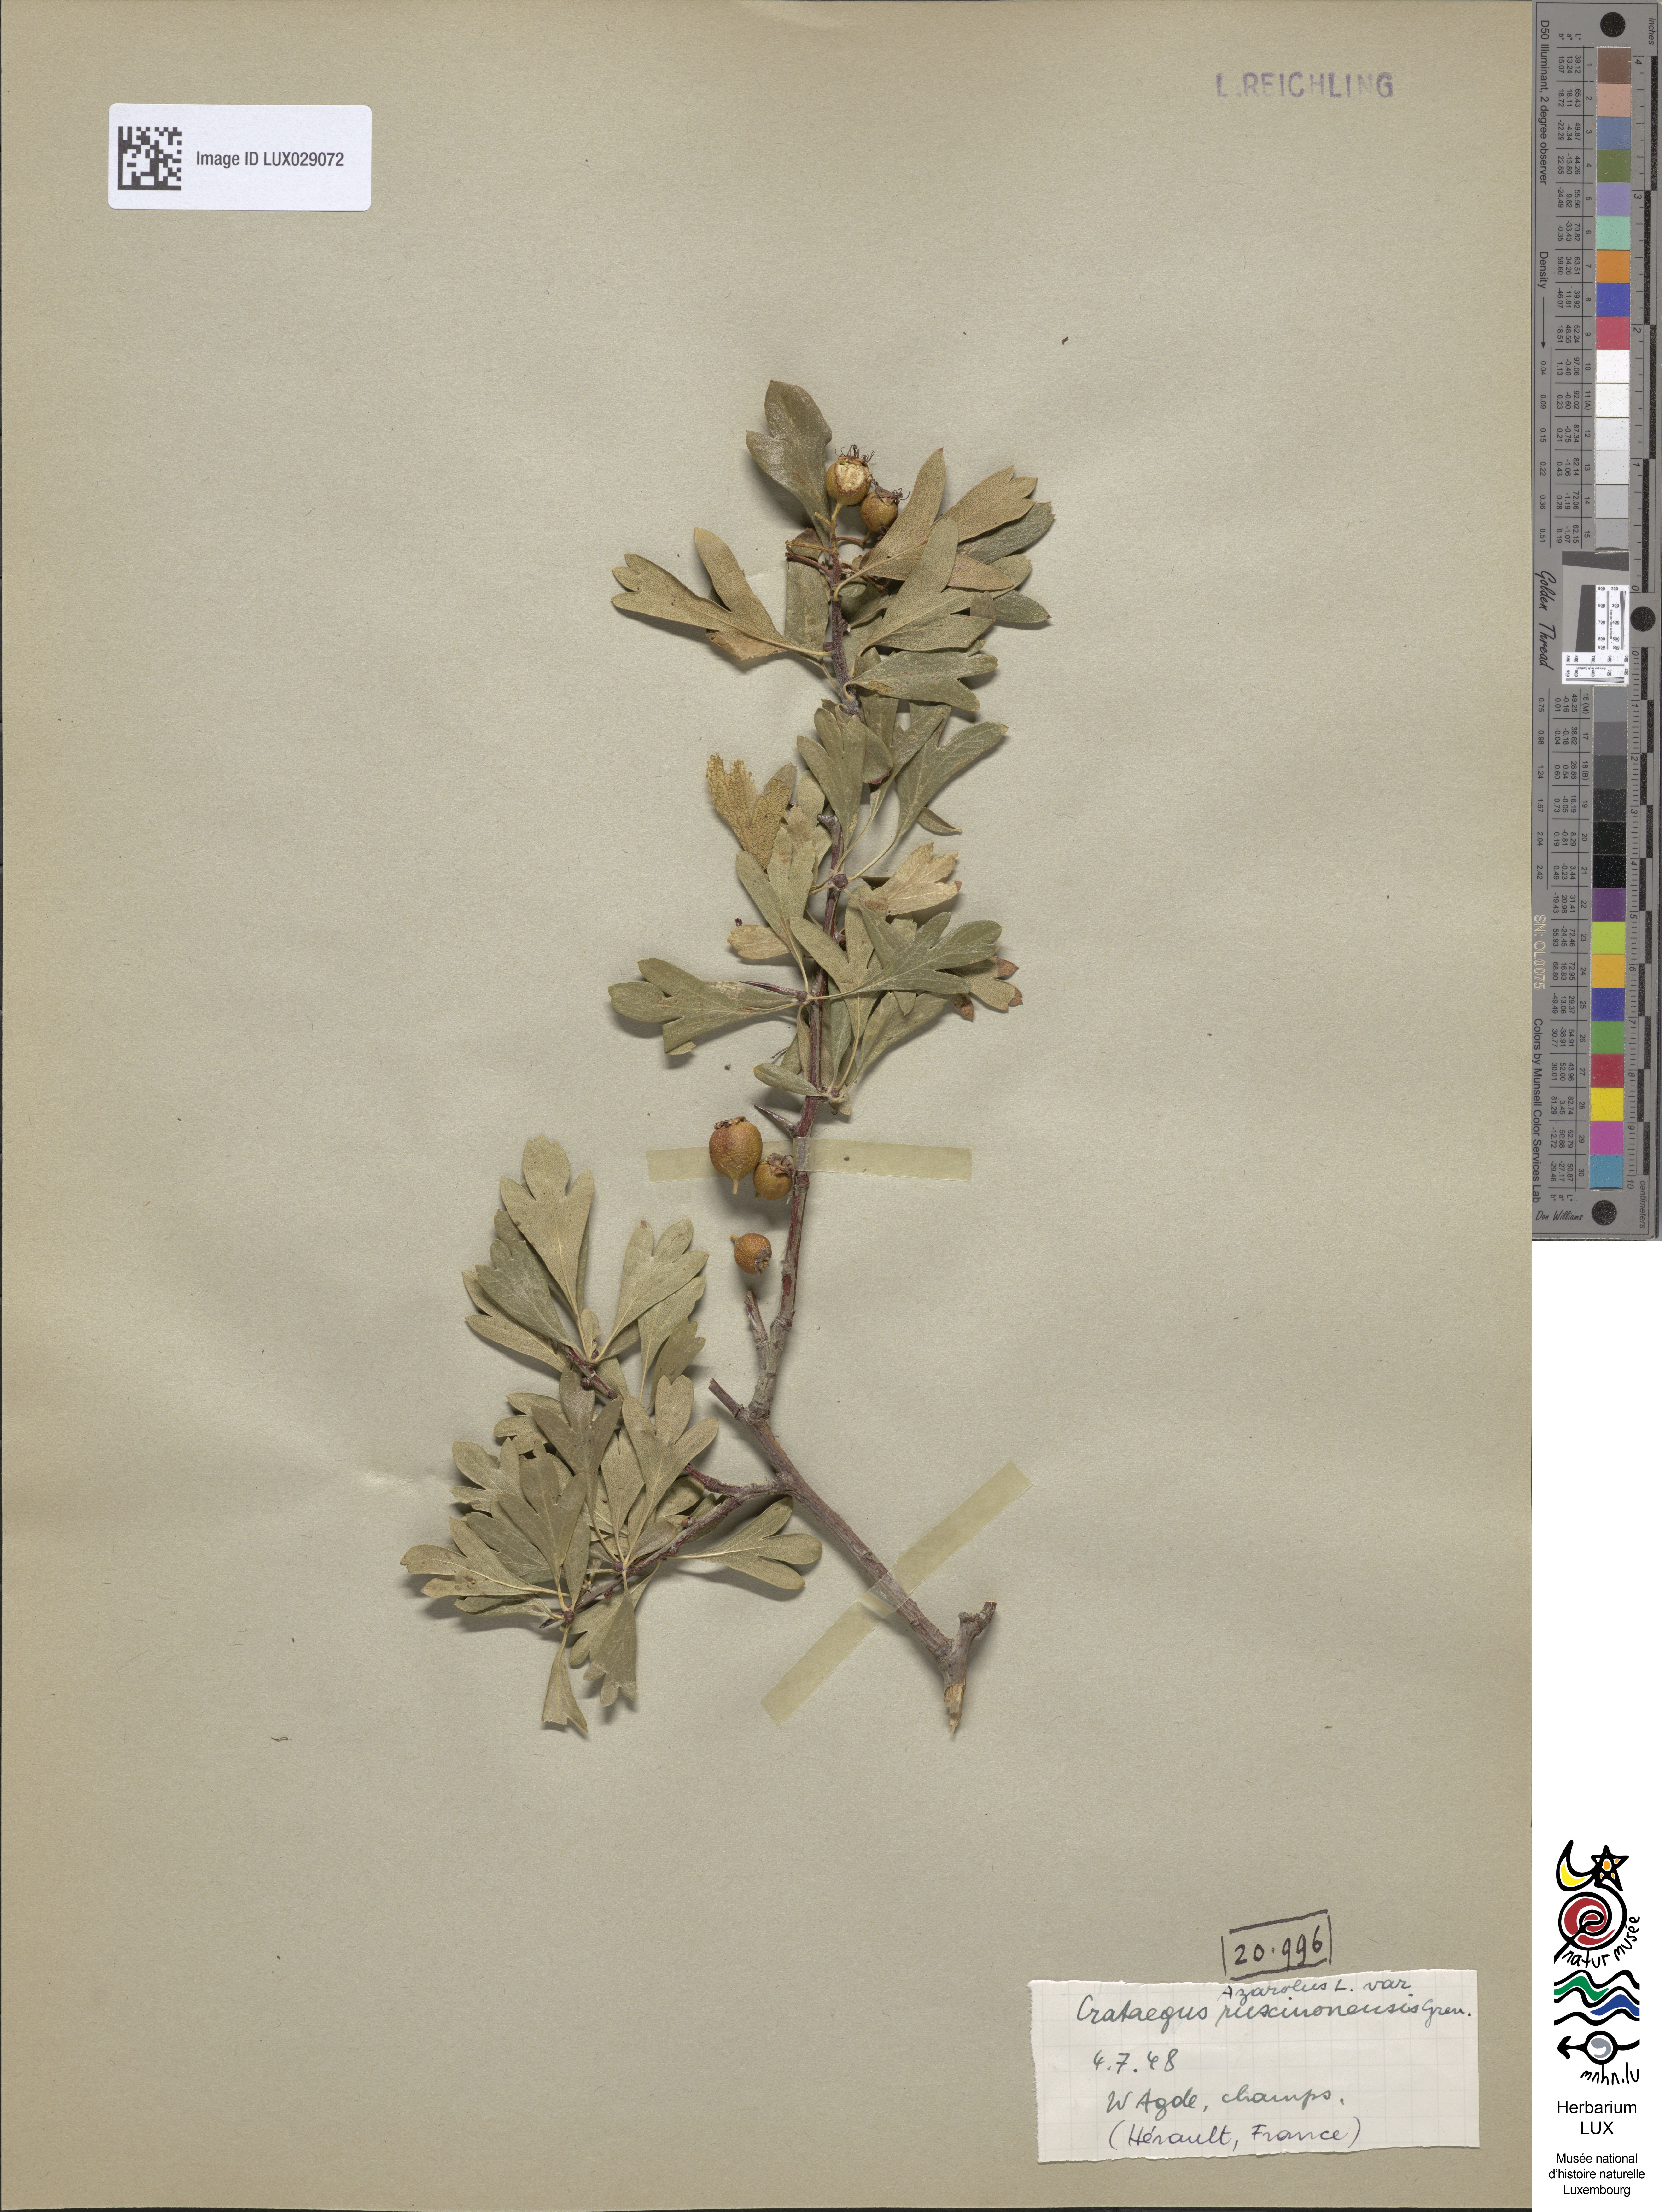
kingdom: Plantae
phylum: Tracheophyta
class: Magnoliopsida
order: Rosales
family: Rosaceae
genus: Crataegus
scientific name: Crataegus ruscinonensis
